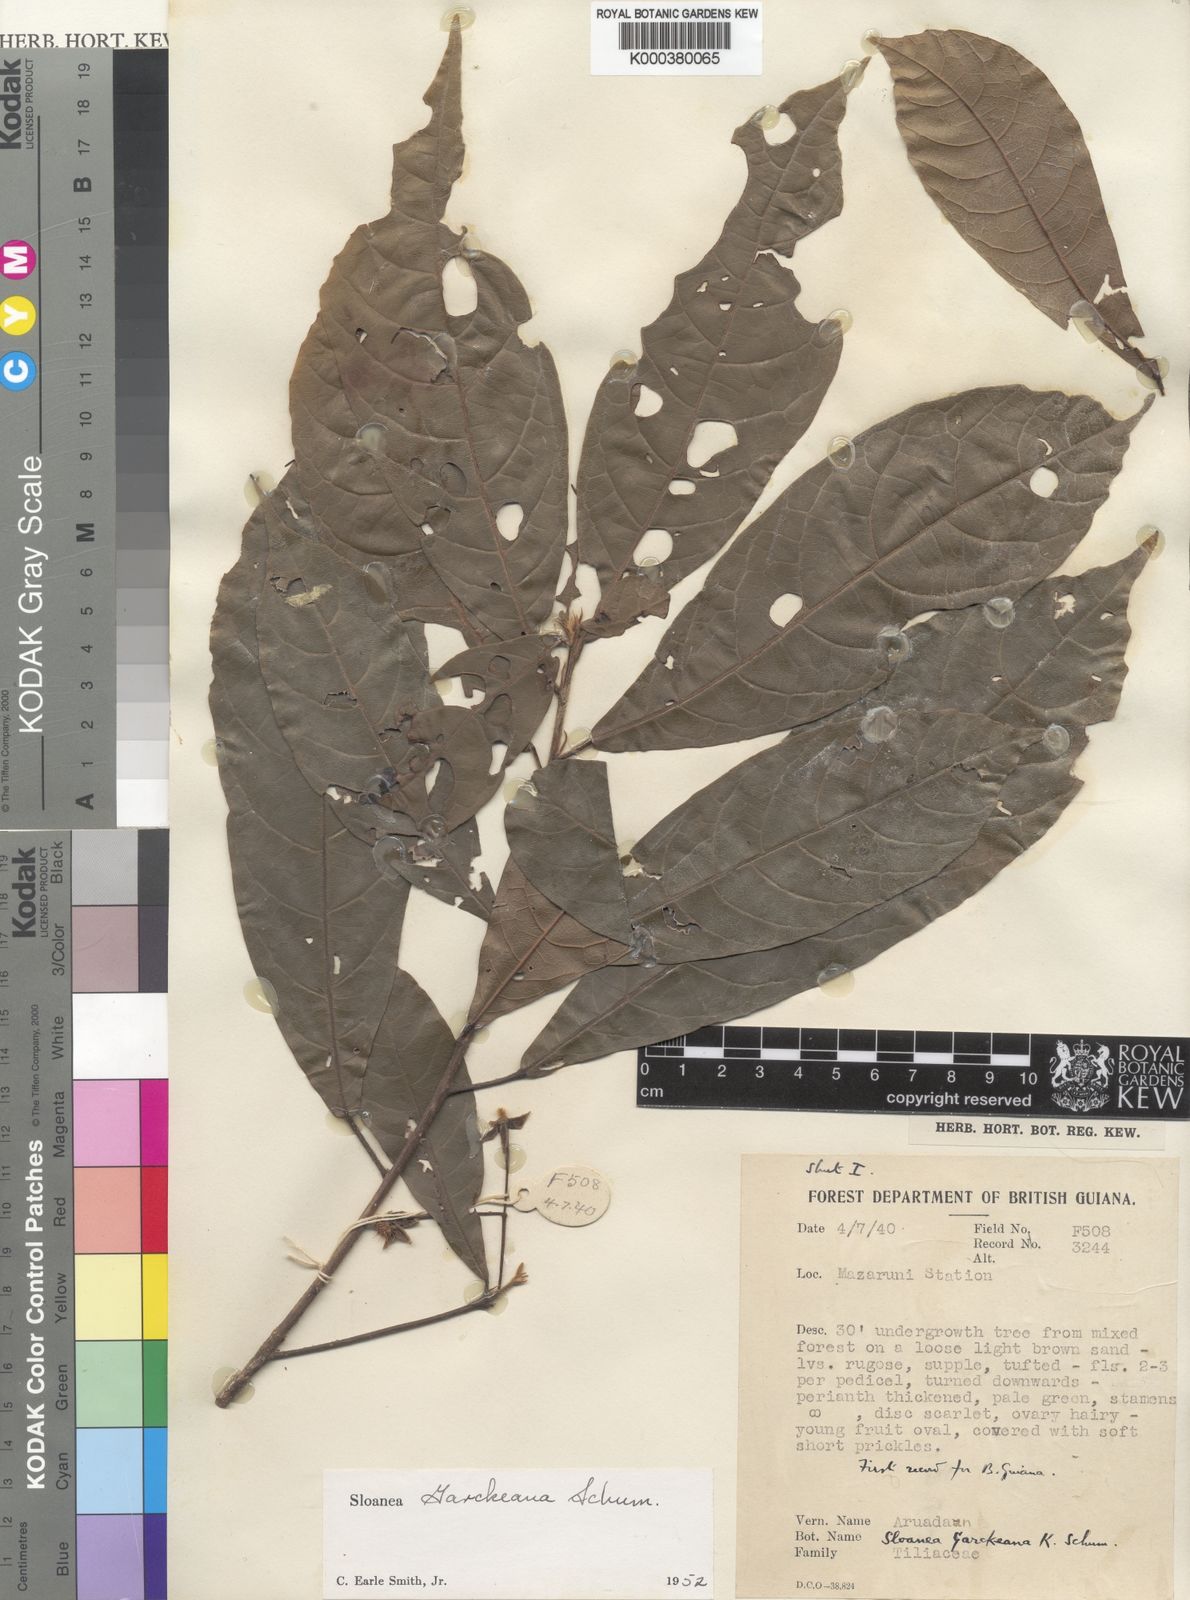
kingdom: Plantae
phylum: Tracheophyta
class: Magnoliopsida
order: Oxalidales
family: Elaeocarpaceae
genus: Sloanea
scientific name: Sloanea garckeana
